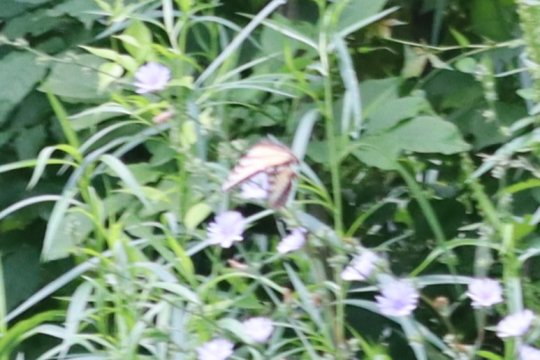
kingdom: Animalia
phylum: Arthropoda
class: Insecta
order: Lepidoptera
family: Papilionidae
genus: Pterourus
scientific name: Pterourus canadensis
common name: Canadian Tiger Swallowtail
